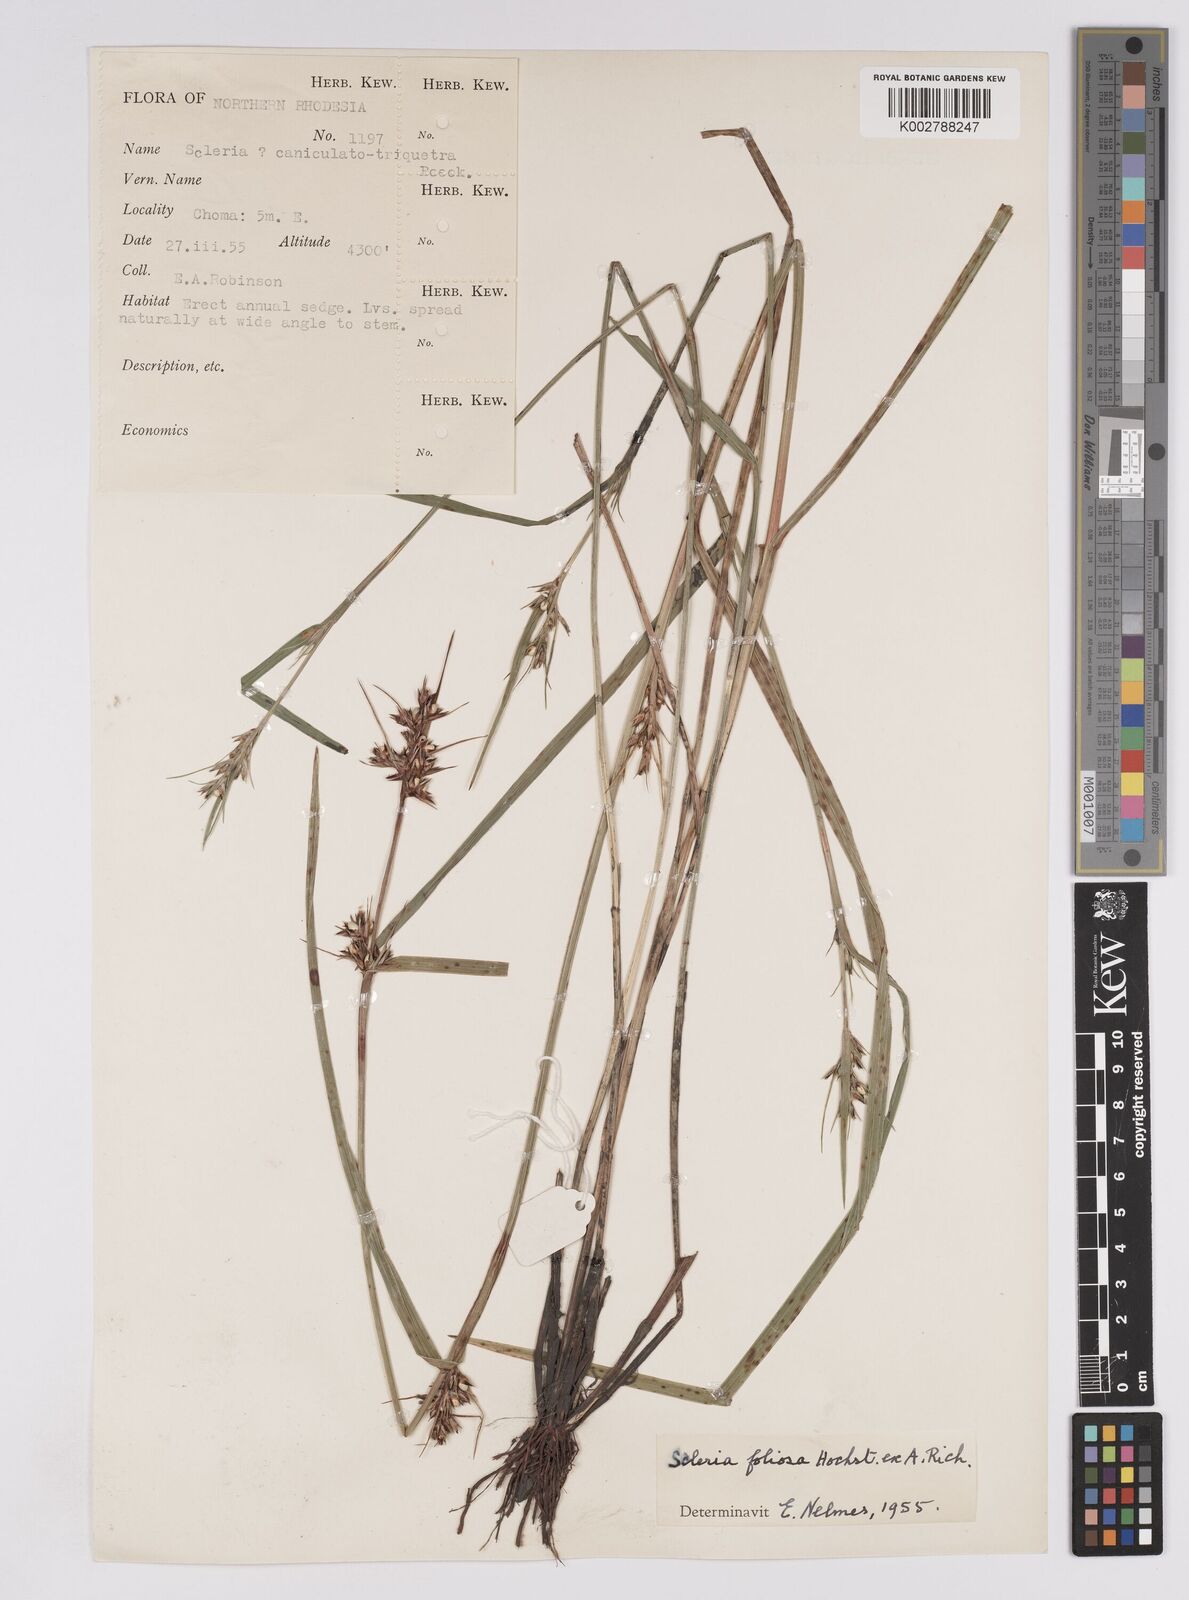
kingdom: Plantae
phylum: Tracheophyta
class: Liliopsida
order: Poales
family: Cyperaceae
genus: Scleria
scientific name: Scleria foliosa
